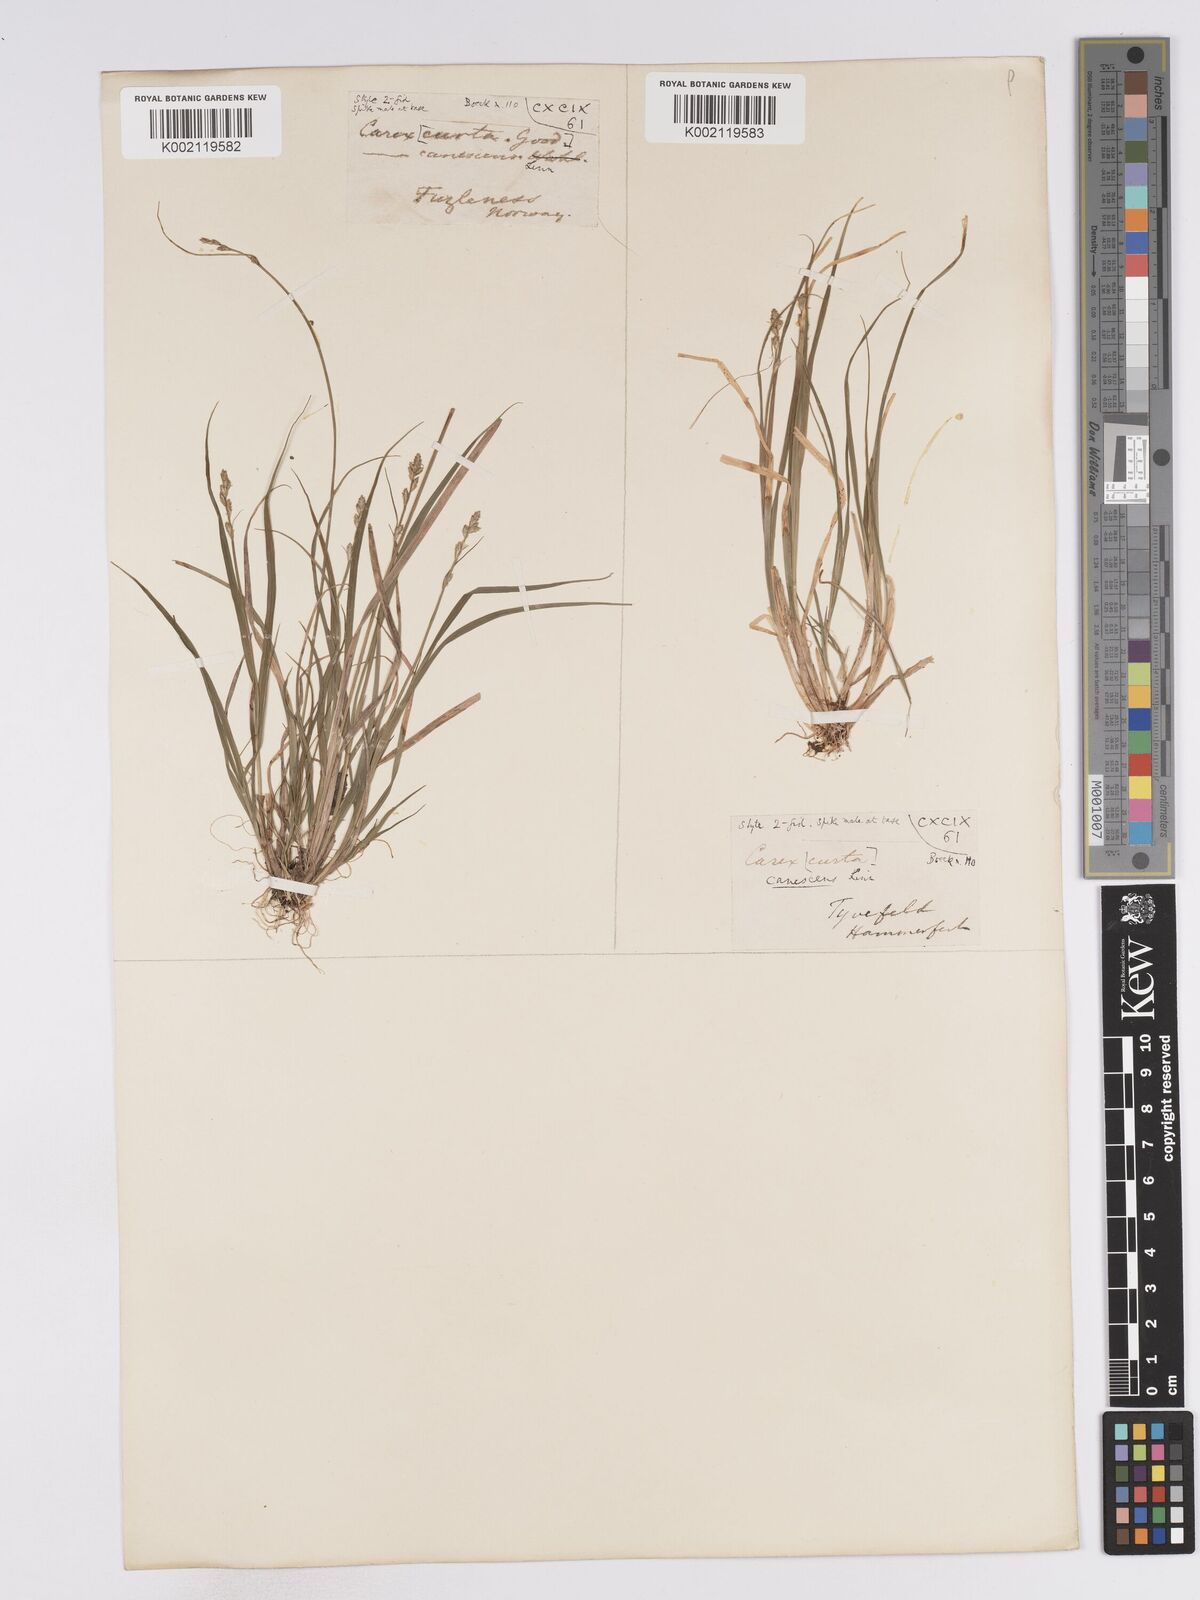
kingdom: Plantae
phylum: Tracheophyta
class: Liliopsida
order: Poales
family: Cyperaceae
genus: Carex
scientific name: Carex curta
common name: White sedge
